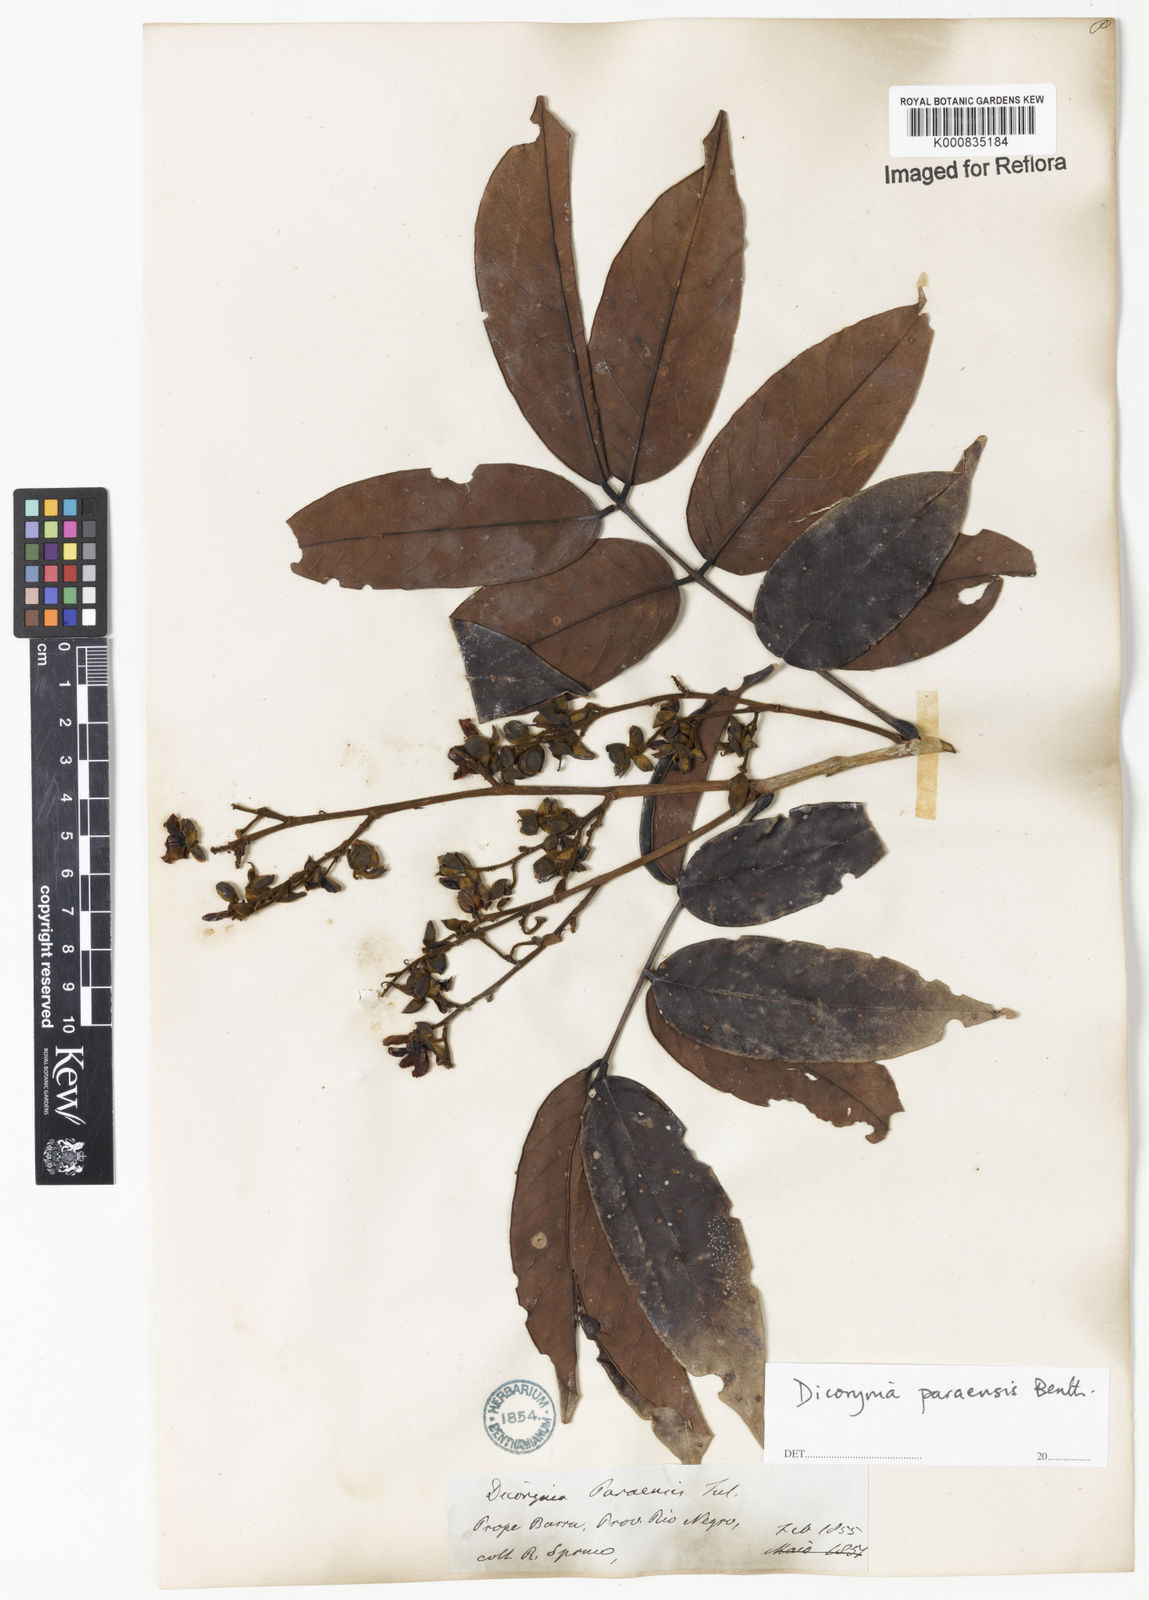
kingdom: Plantae
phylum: Tracheophyta
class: Magnoliopsida
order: Fabales
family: Fabaceae
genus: Dicorynia
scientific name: Dicorynia paraensis
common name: Angelique
